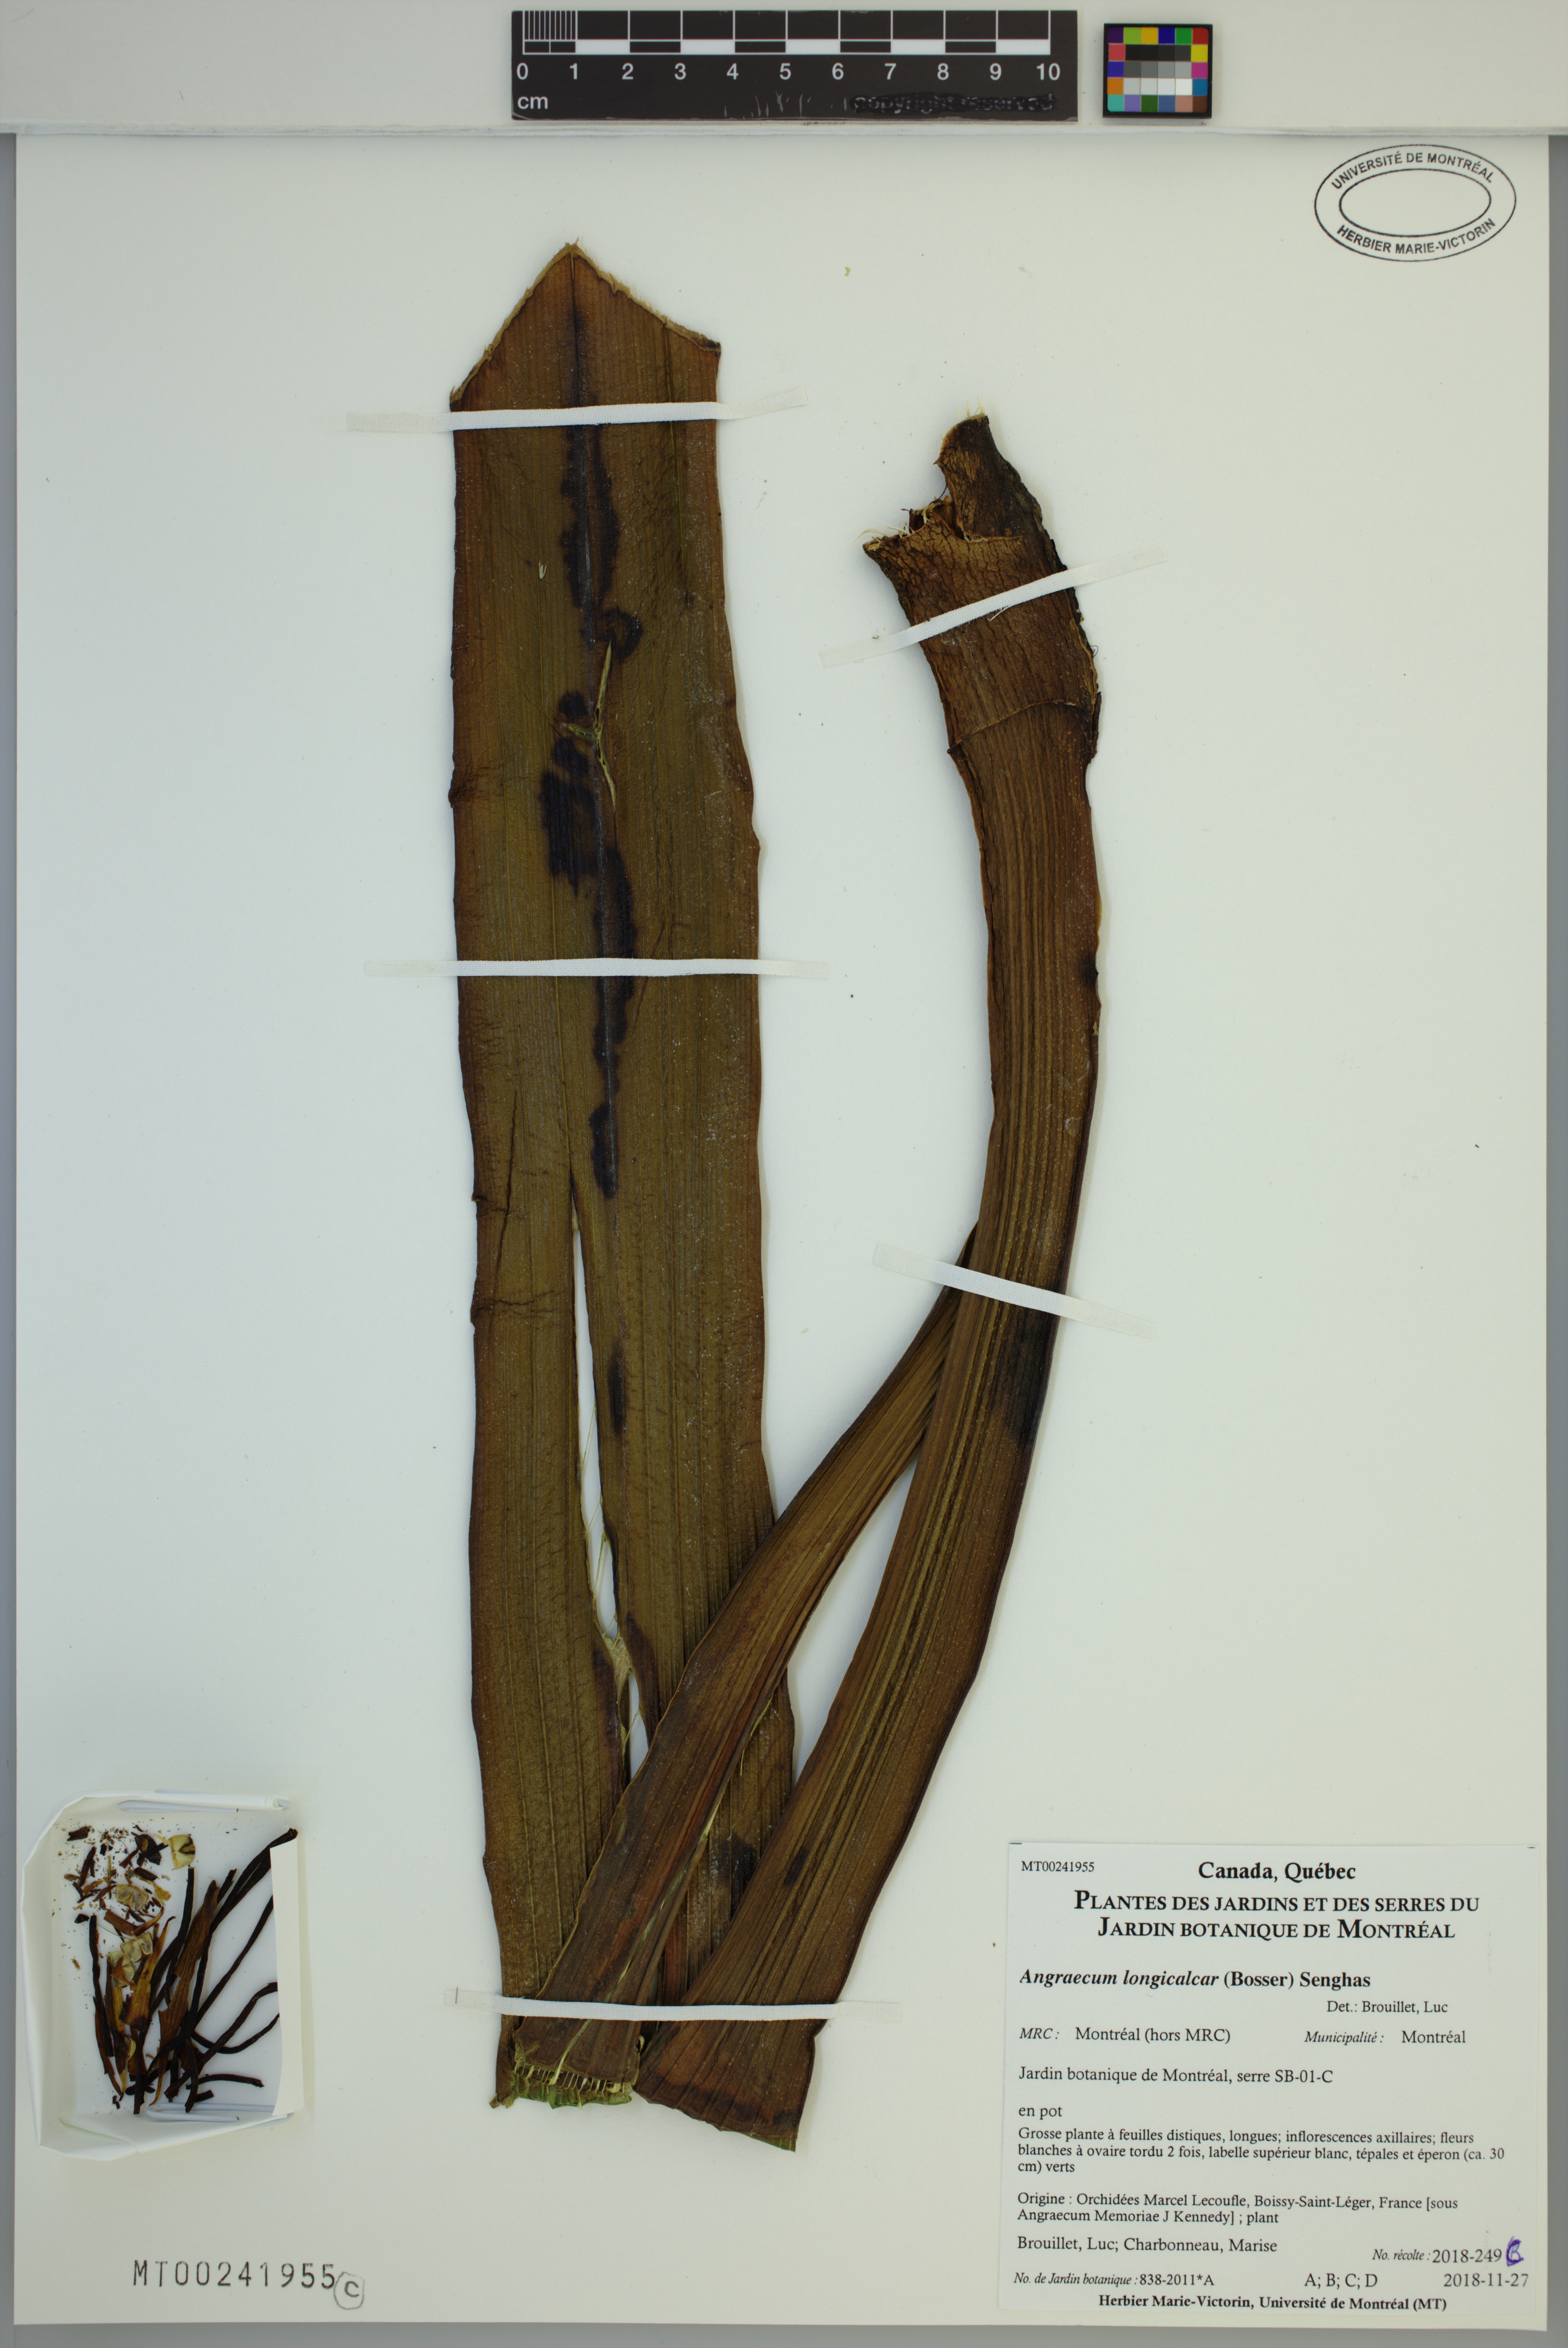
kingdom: Plantae
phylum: Tracheophyta
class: Liliopsida
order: Asparagales
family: Orchidaceae
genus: Angraecum
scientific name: Angraecum longicalcar
